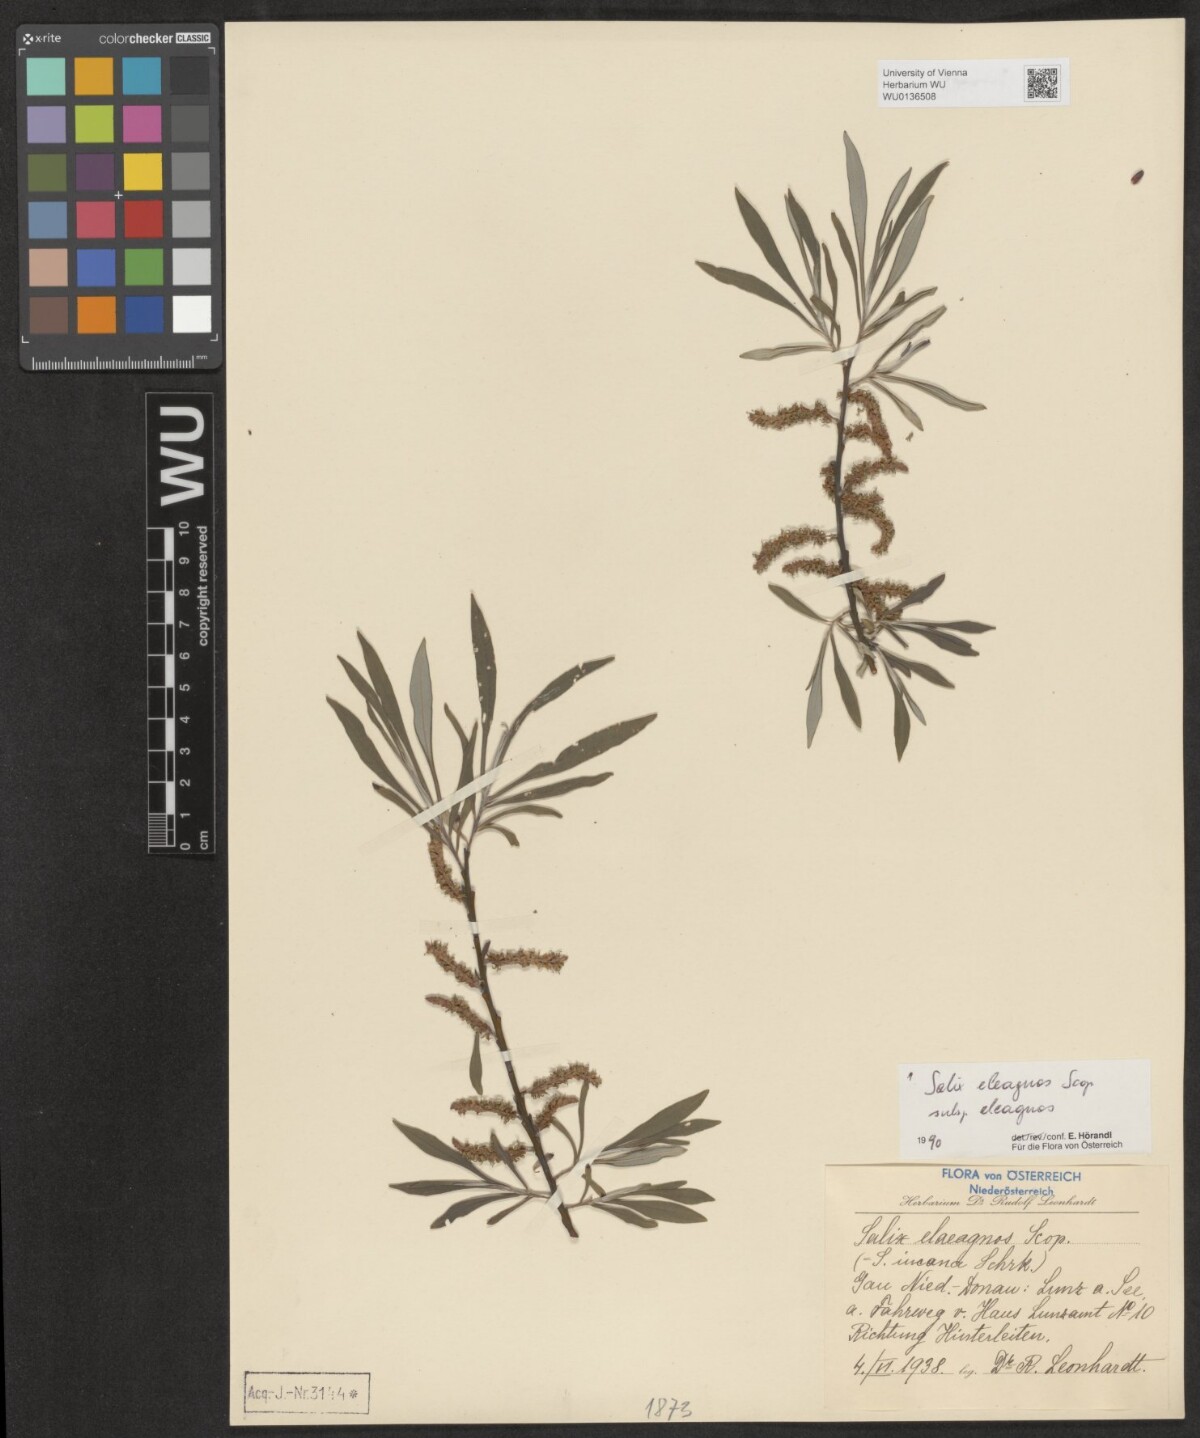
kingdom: Plantae
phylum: Tracheophyta
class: Magnoliopsida
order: Malpighiales
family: Salicaceae
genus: Salix
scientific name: Salix eleagnos
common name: Elaeagnus willow
